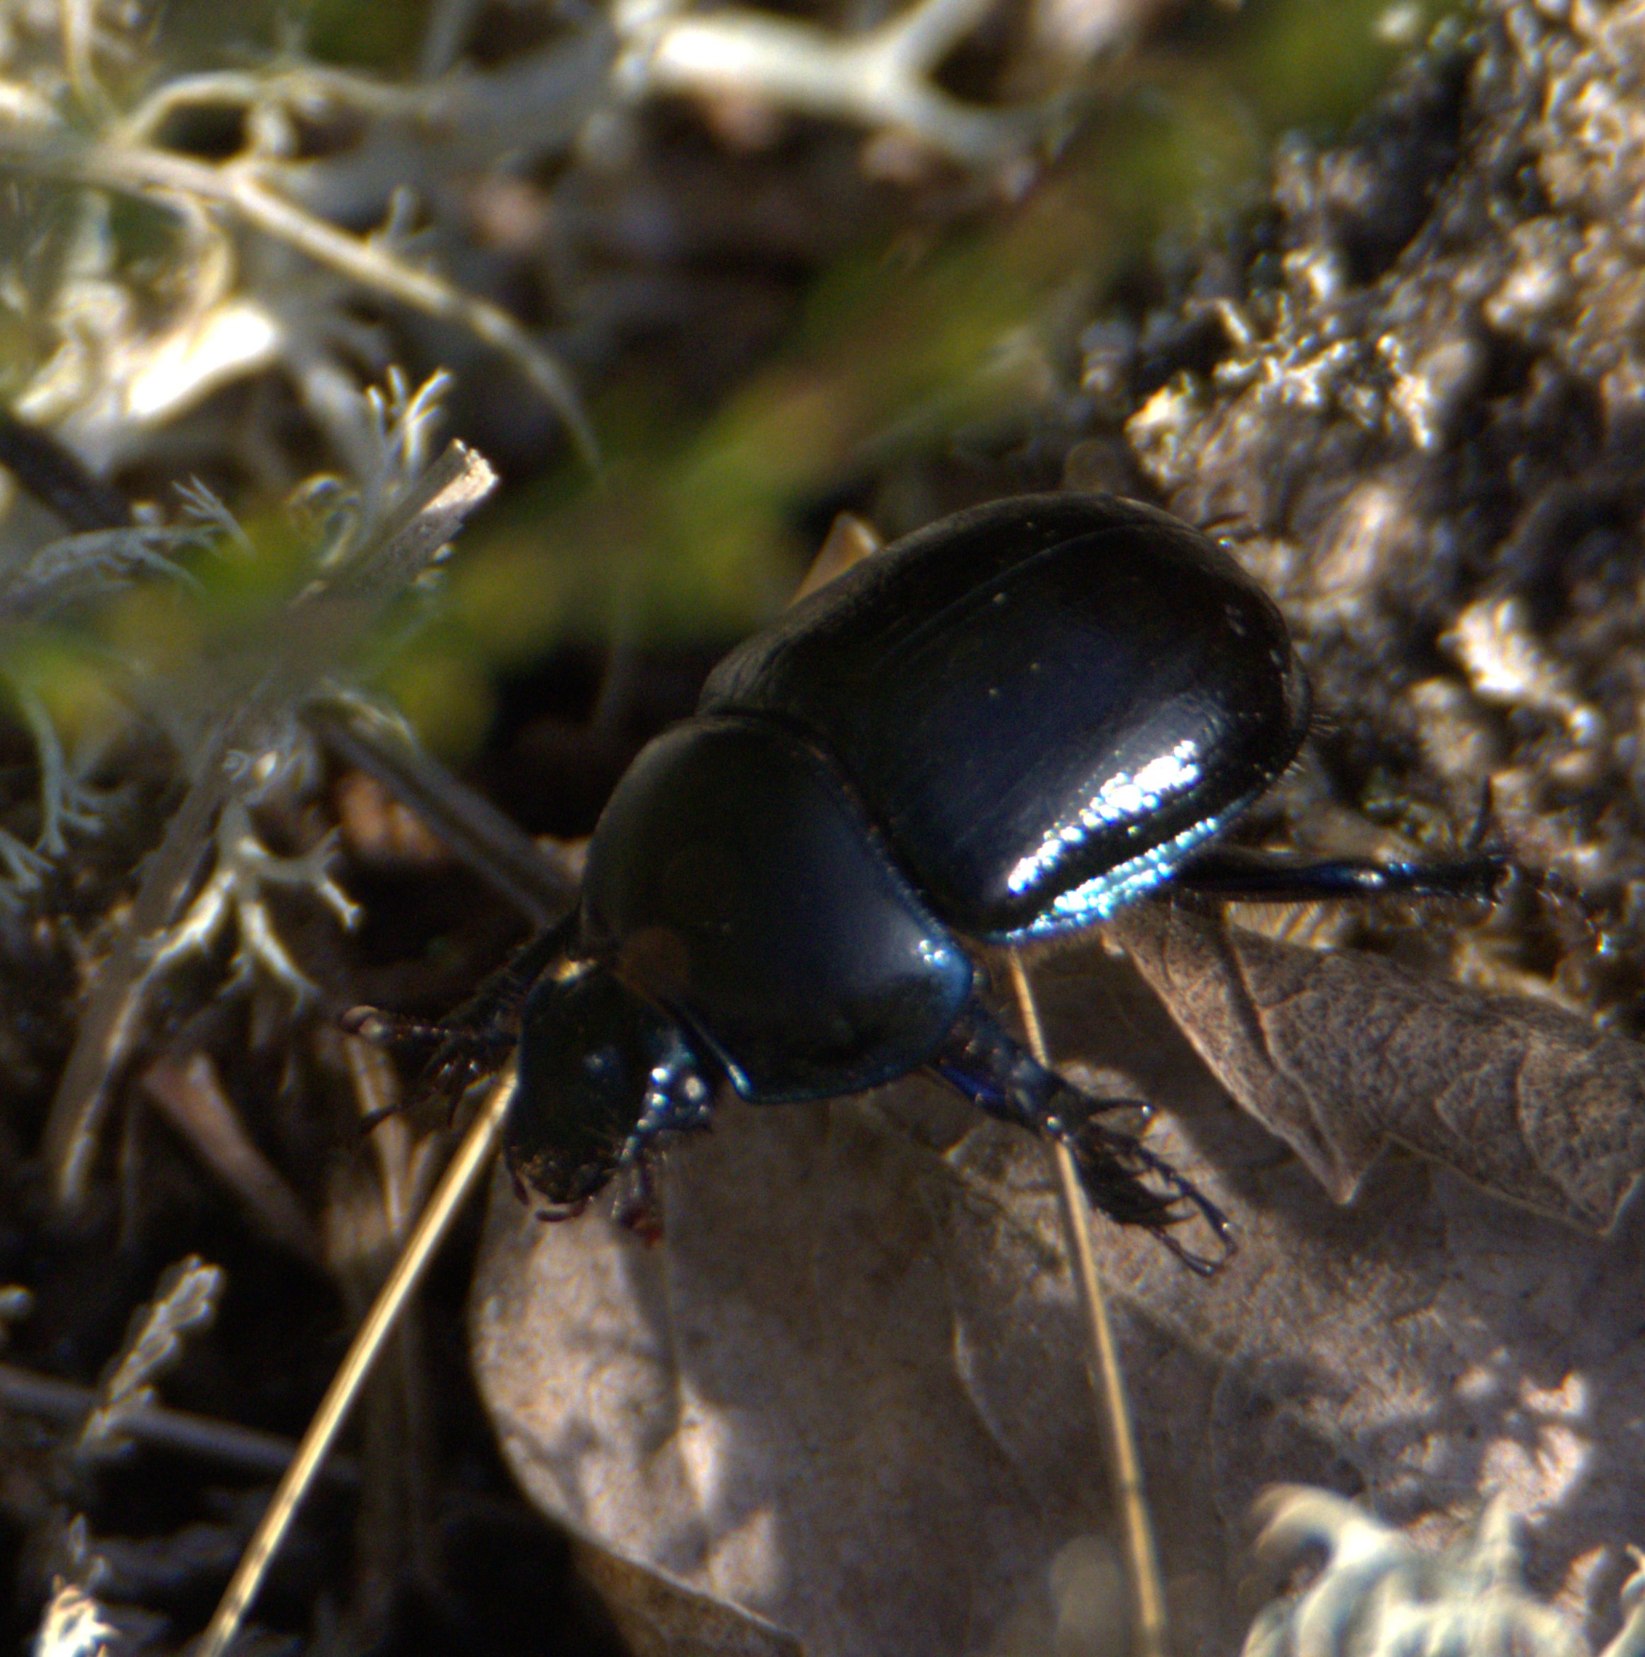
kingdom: Animalia
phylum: Arthropoda
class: Insecta
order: Coleoptera
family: Geotrupidae
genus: Anoplotrupes
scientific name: Anoplotrupes stercorosus
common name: Skovskarnbasse
